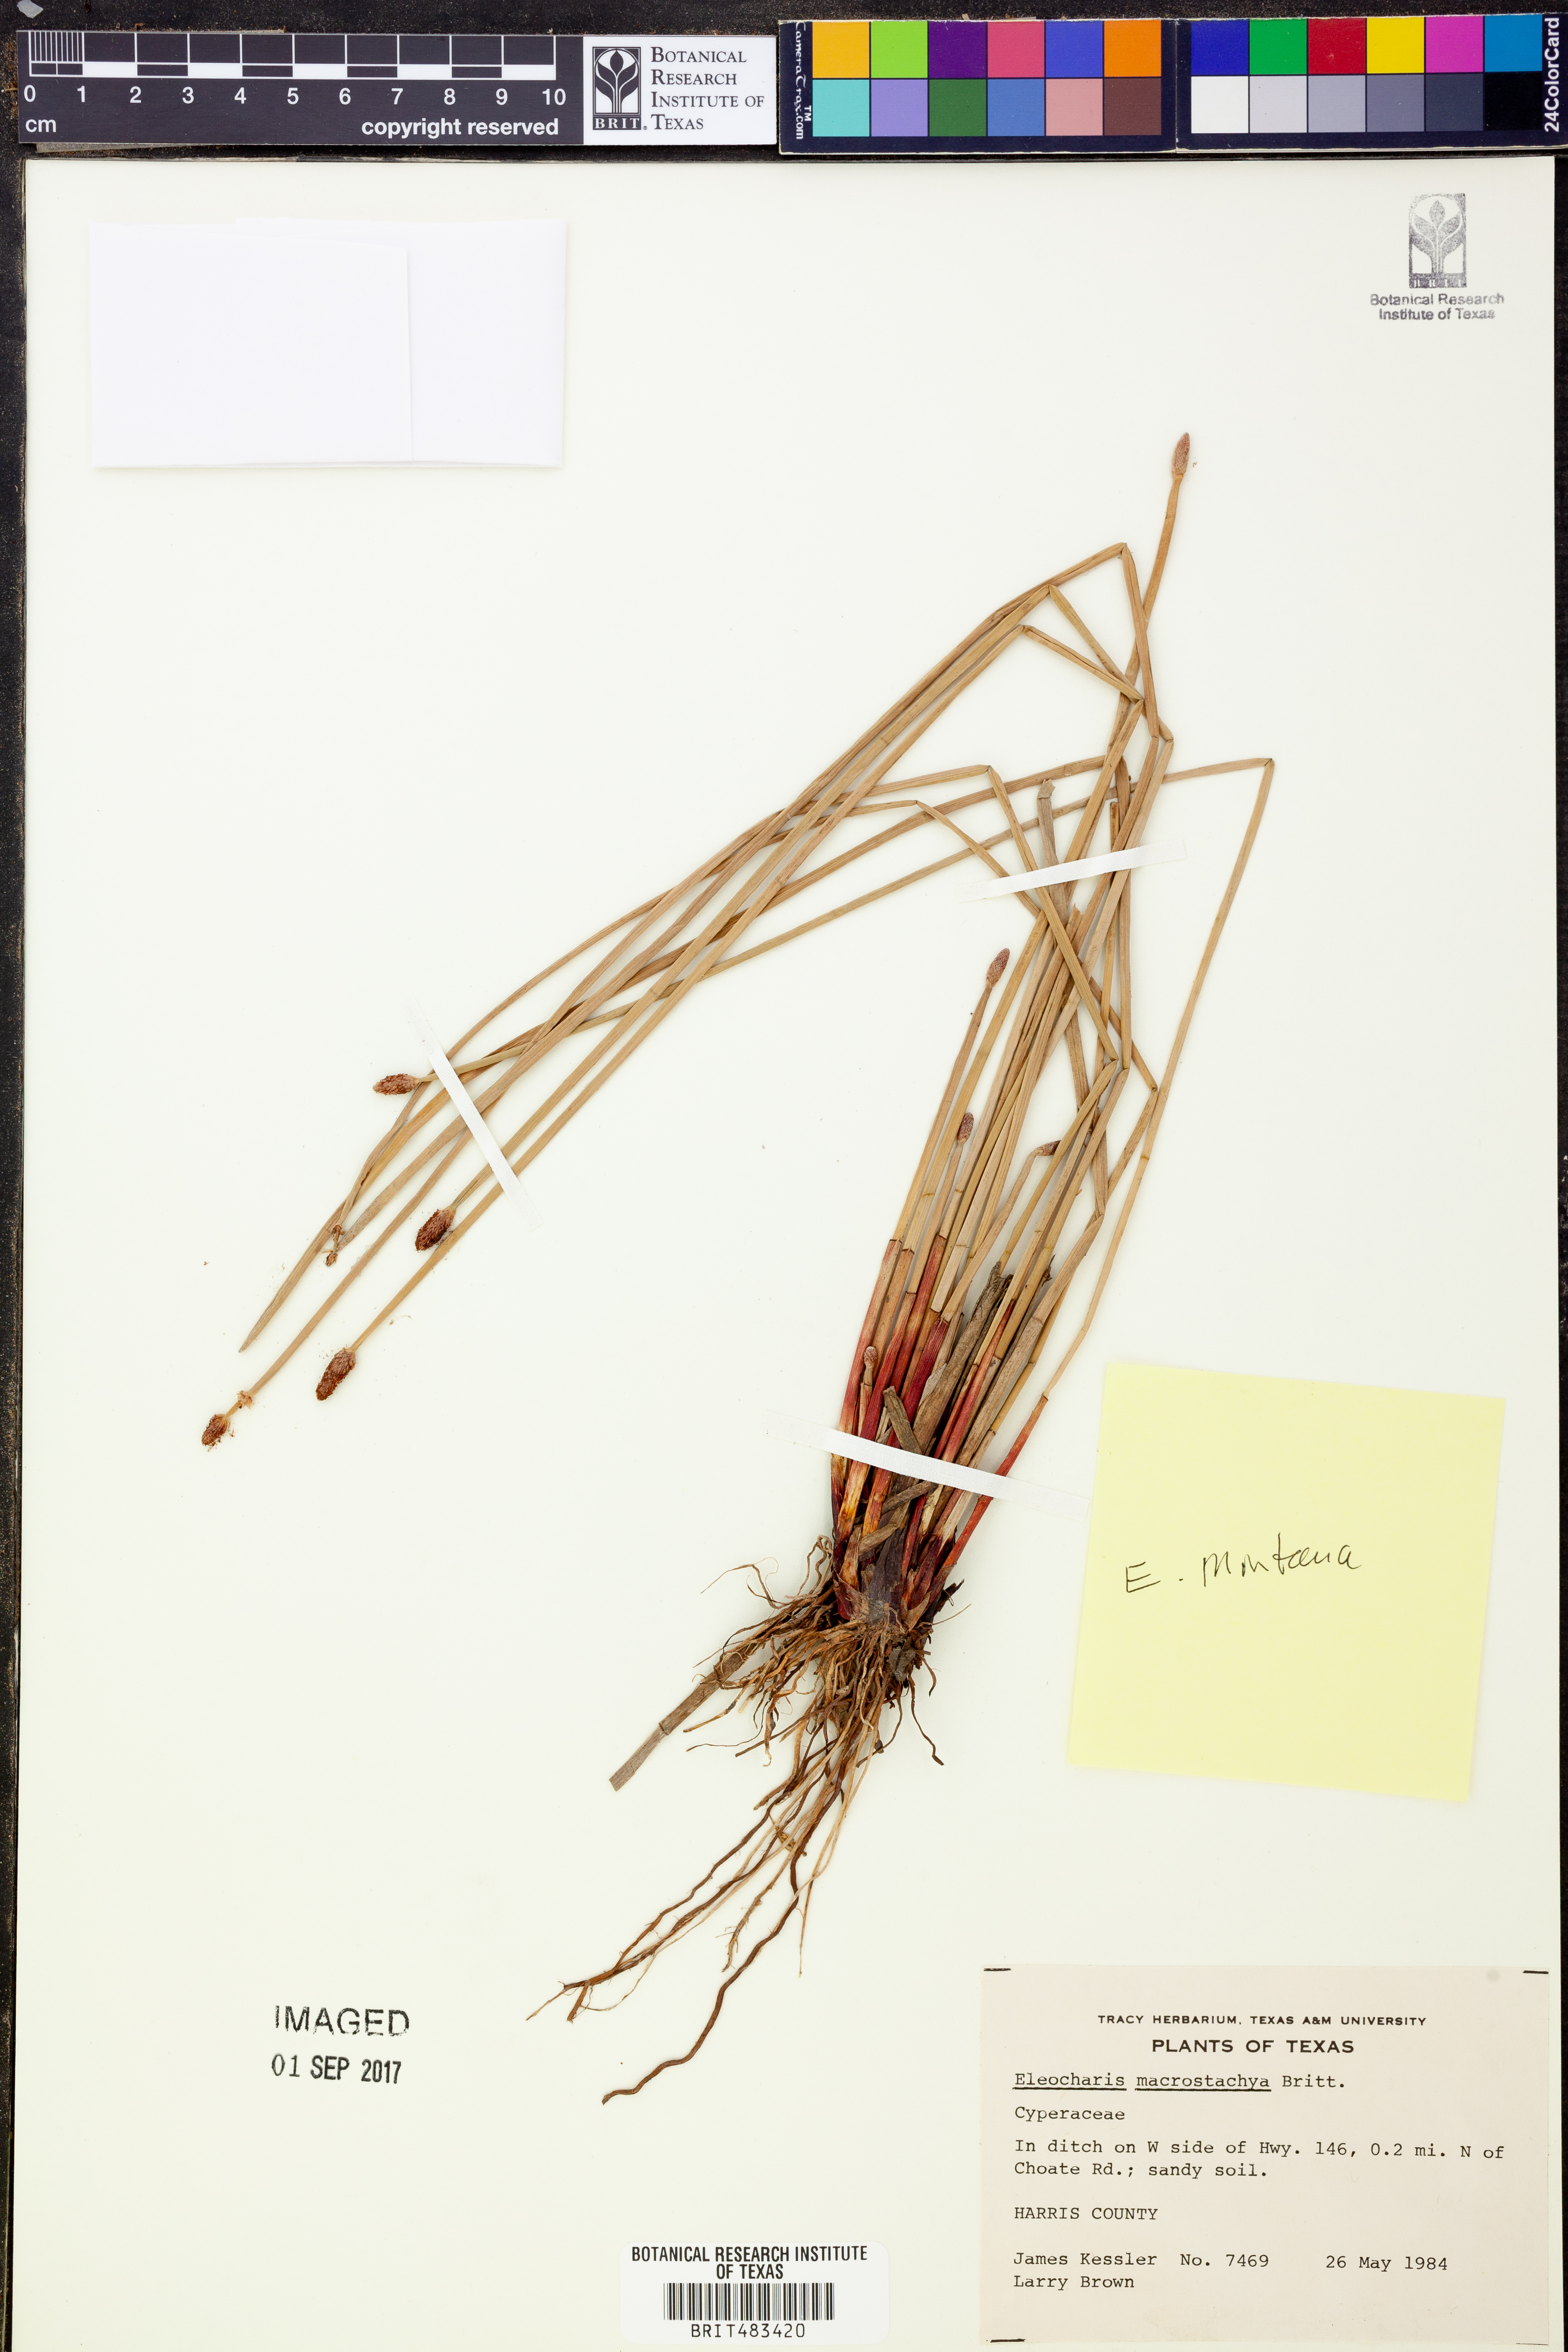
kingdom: Plantae
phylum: Tracheophyta
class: Liliopsida
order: Poales
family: Cyperaceae
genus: Eleocharis
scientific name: Eleocharis macrostachya
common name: Pale spikerush
